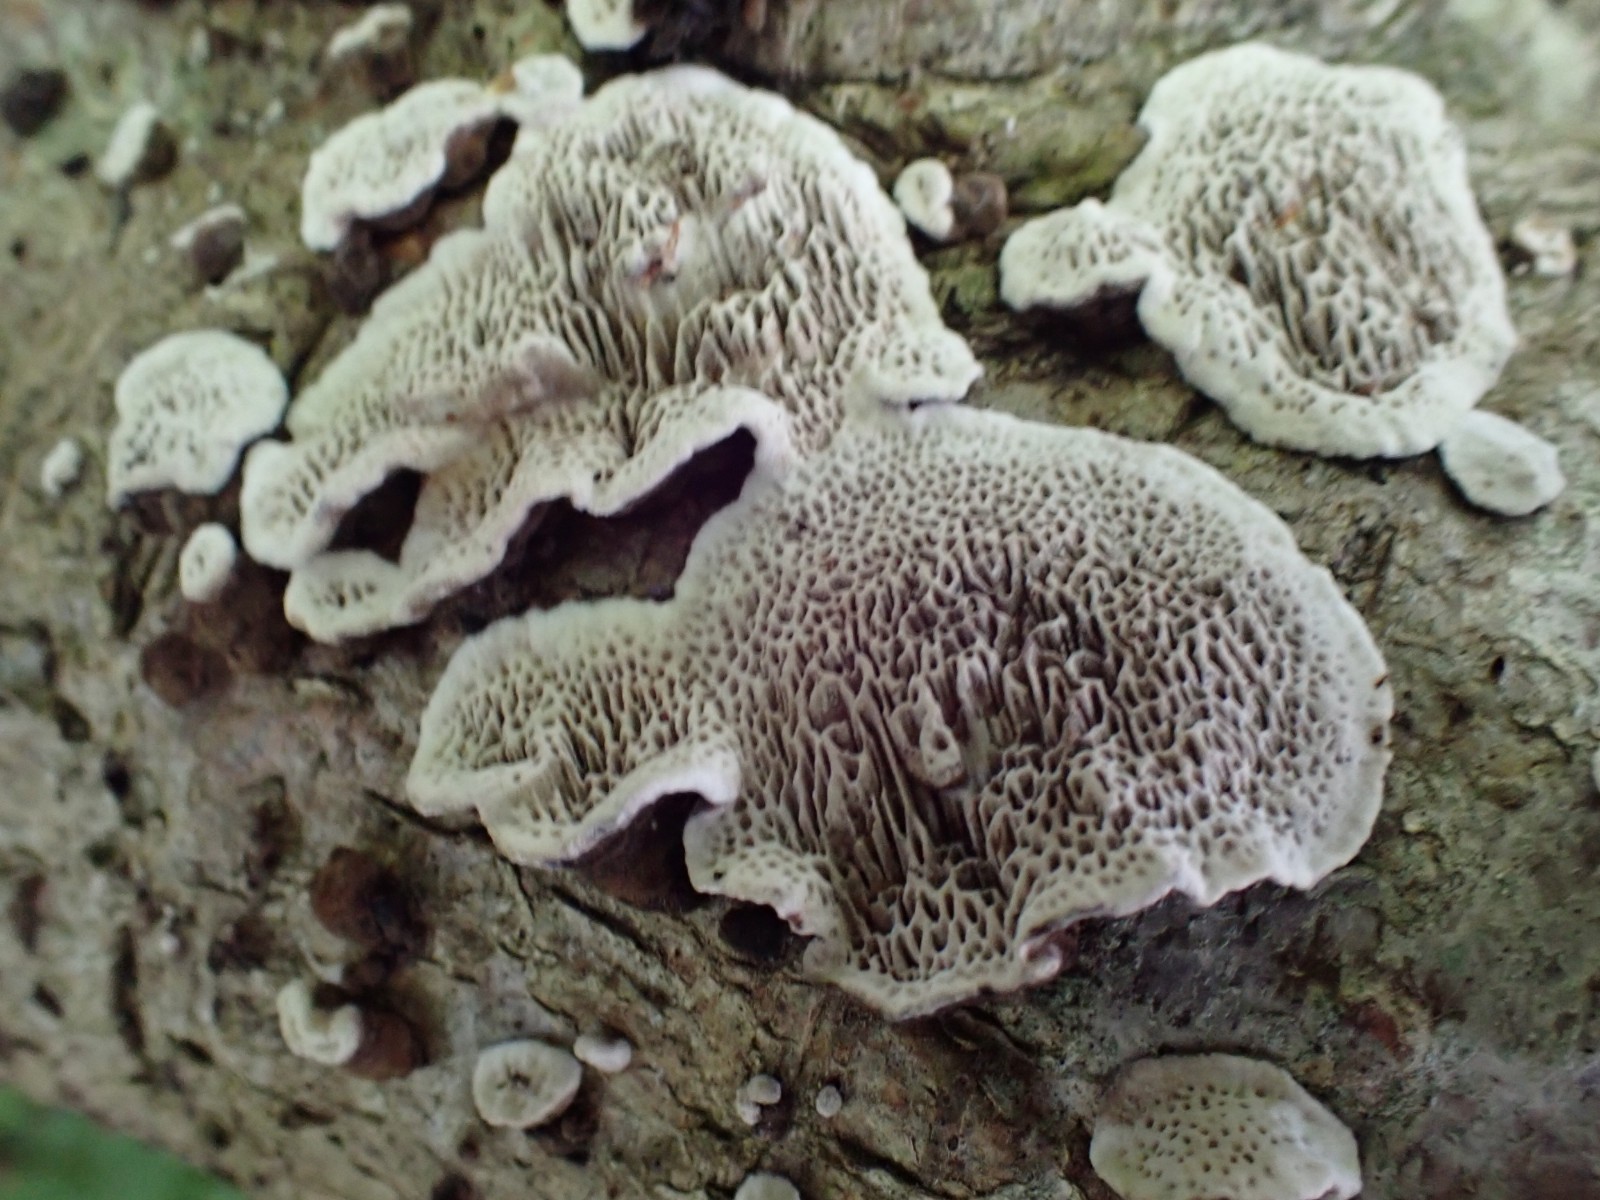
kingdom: Fungi
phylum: Basidiomycota
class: Agaricomycetes
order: Polyporales
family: Polyporaceae
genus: Podofomes
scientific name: Podofomes mollis
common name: blød begporesvamp
